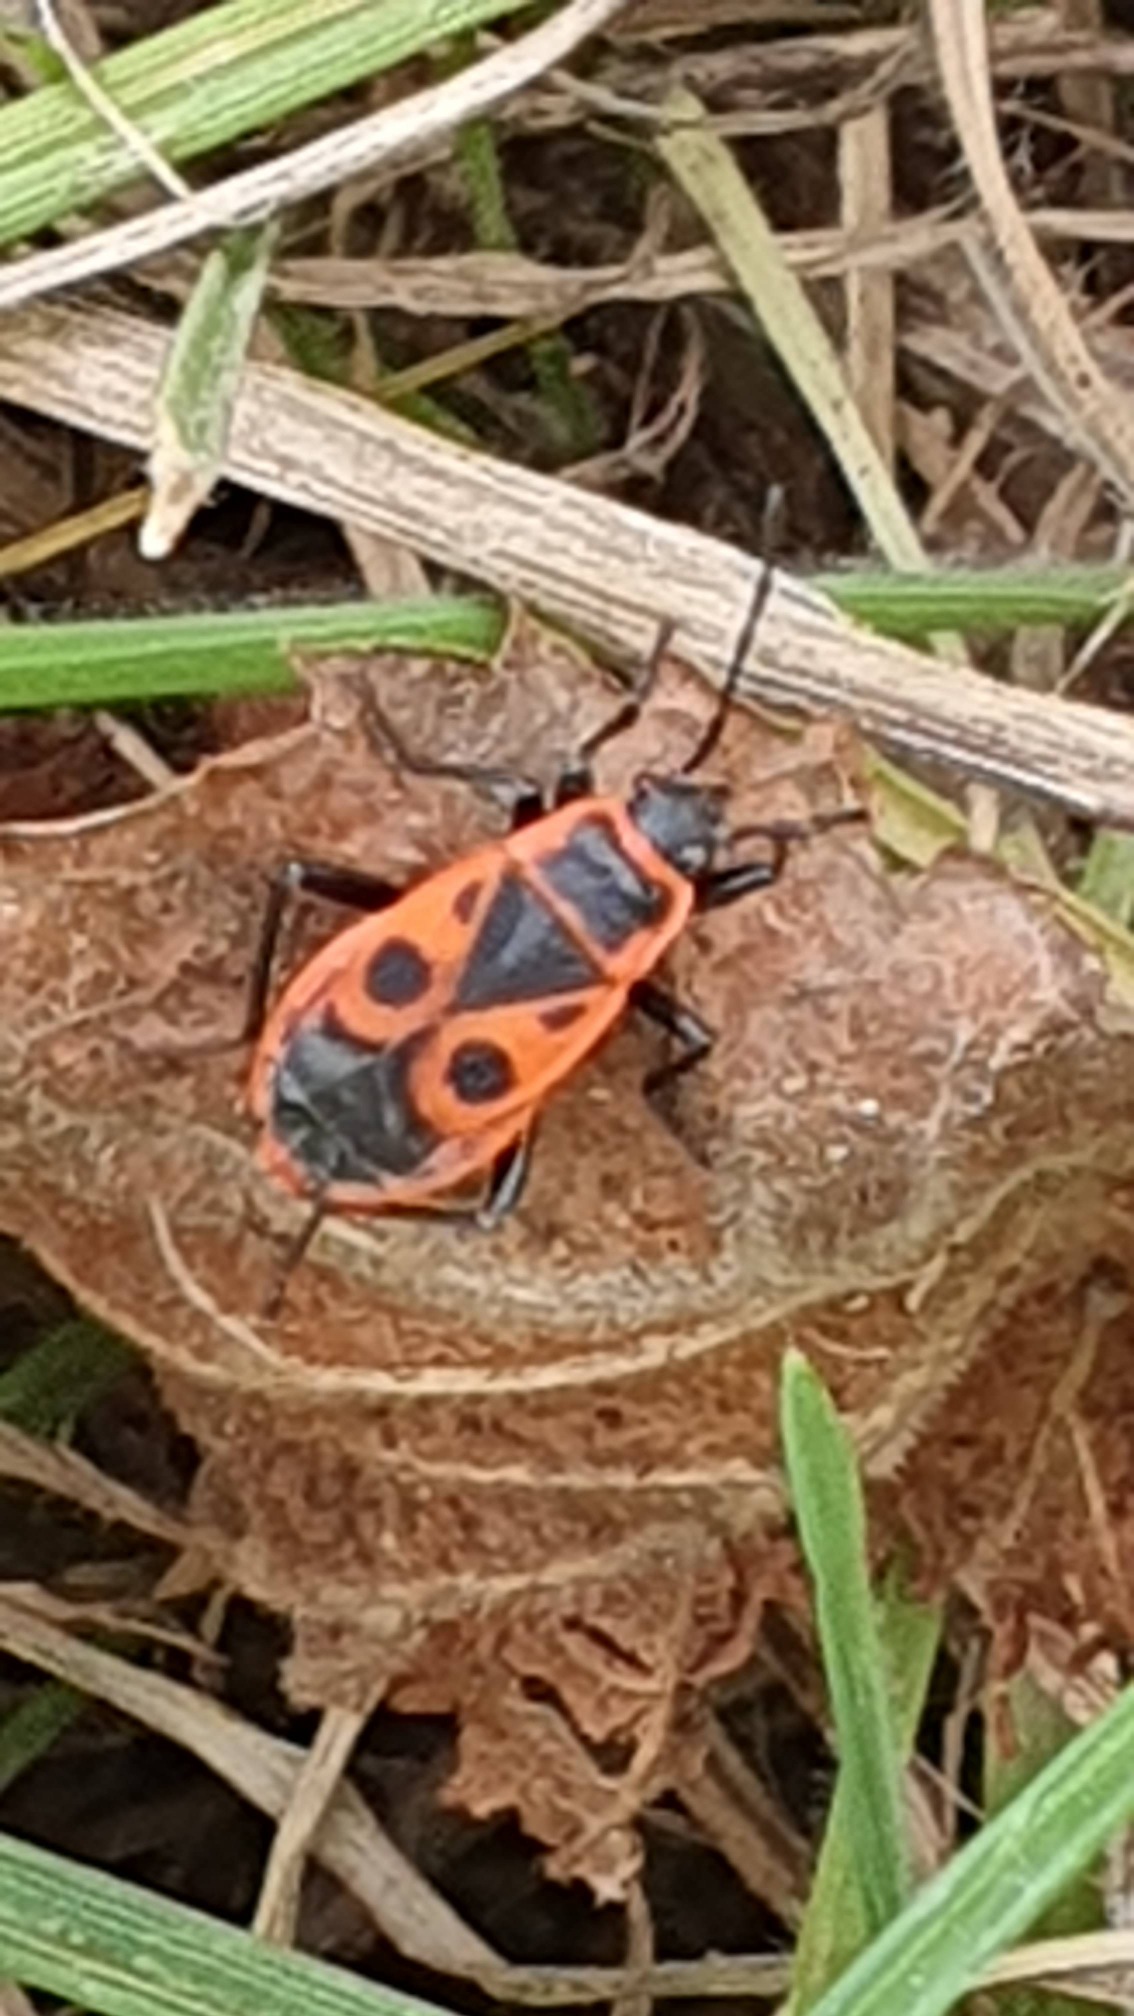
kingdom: Animalia
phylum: Arthropoda
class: Insecta
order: Hemiptera
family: Pyrrhocoridae
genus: Pyrrhocoris
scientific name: Pyrrhocoris apterus
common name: Ildtæge
